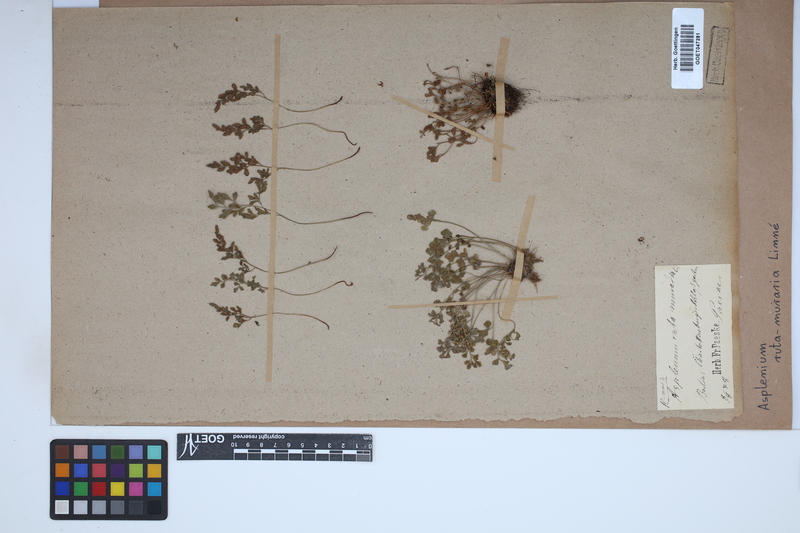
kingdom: Plantae
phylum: Tracheophyta
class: Polypodiopsida
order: Polypodiales
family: Aspleniaceae
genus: Asplenium
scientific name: Asplenium ruta-muraria
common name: Wall-rue
